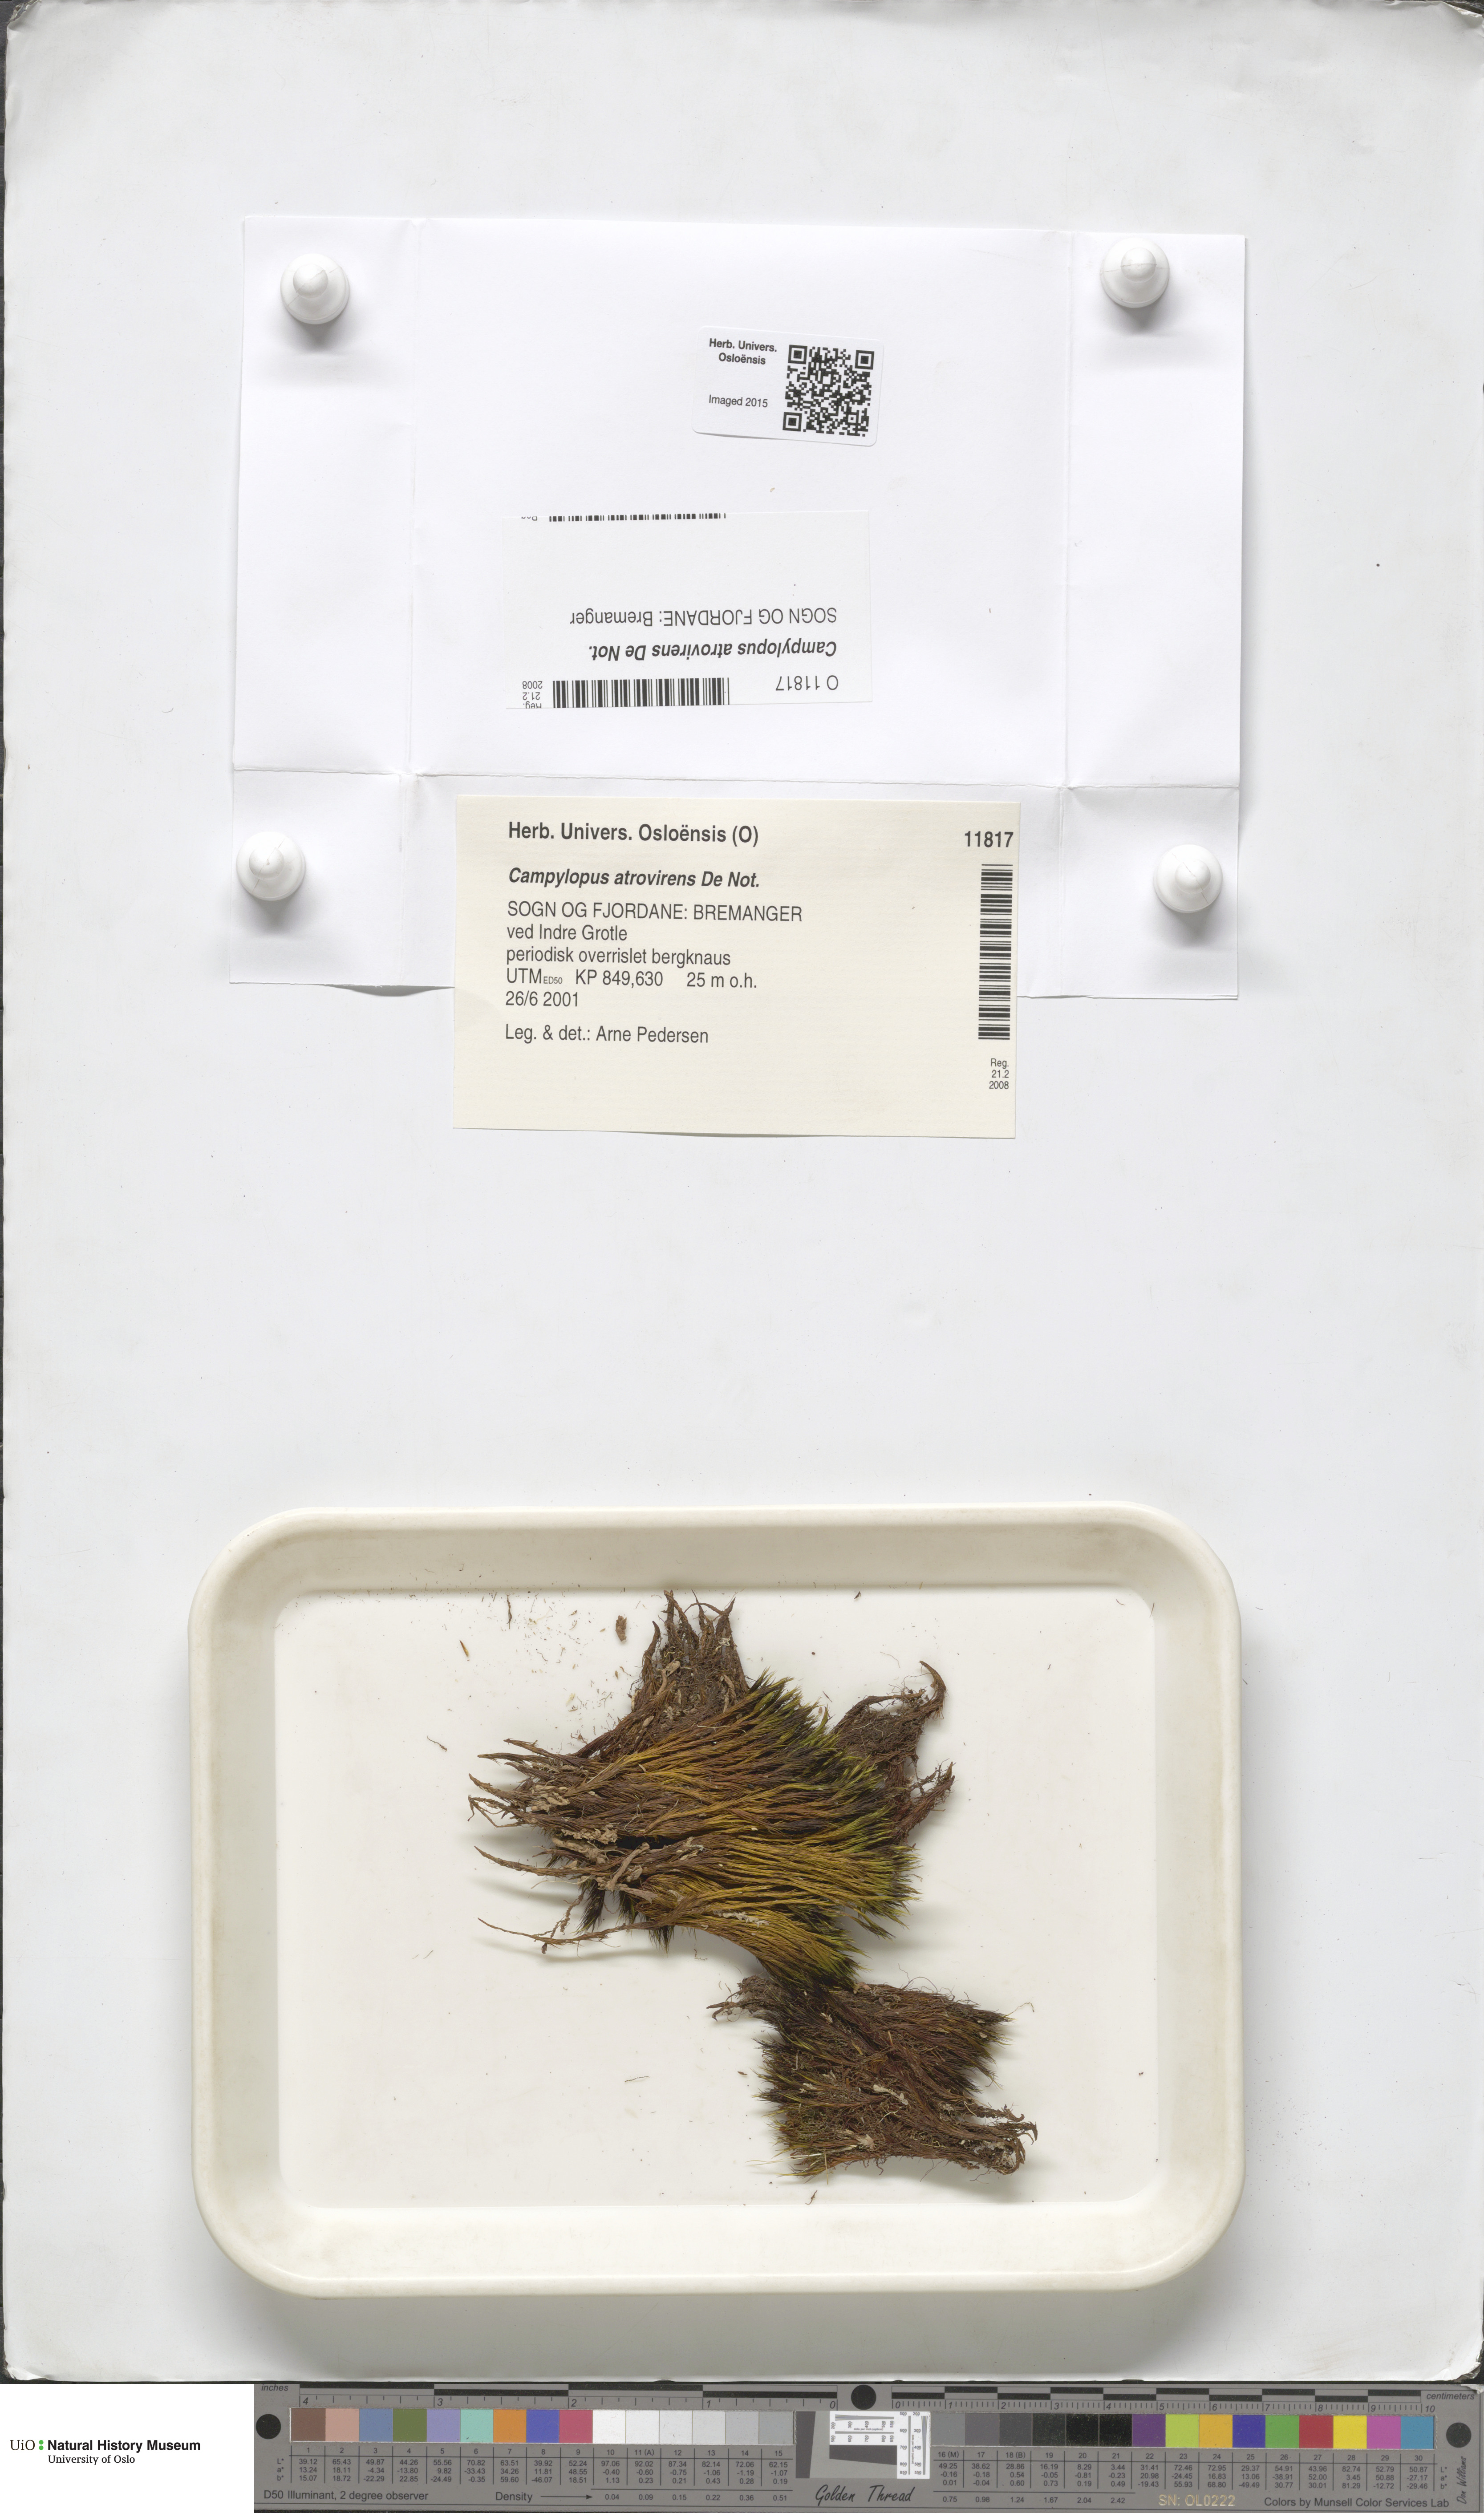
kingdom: Plantae
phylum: Bryophyta
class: Bryopsida
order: Dicranales
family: Leucobryaceae
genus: Campylopus
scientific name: Campylopus atrovirens
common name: Bristly swan-neck moss
